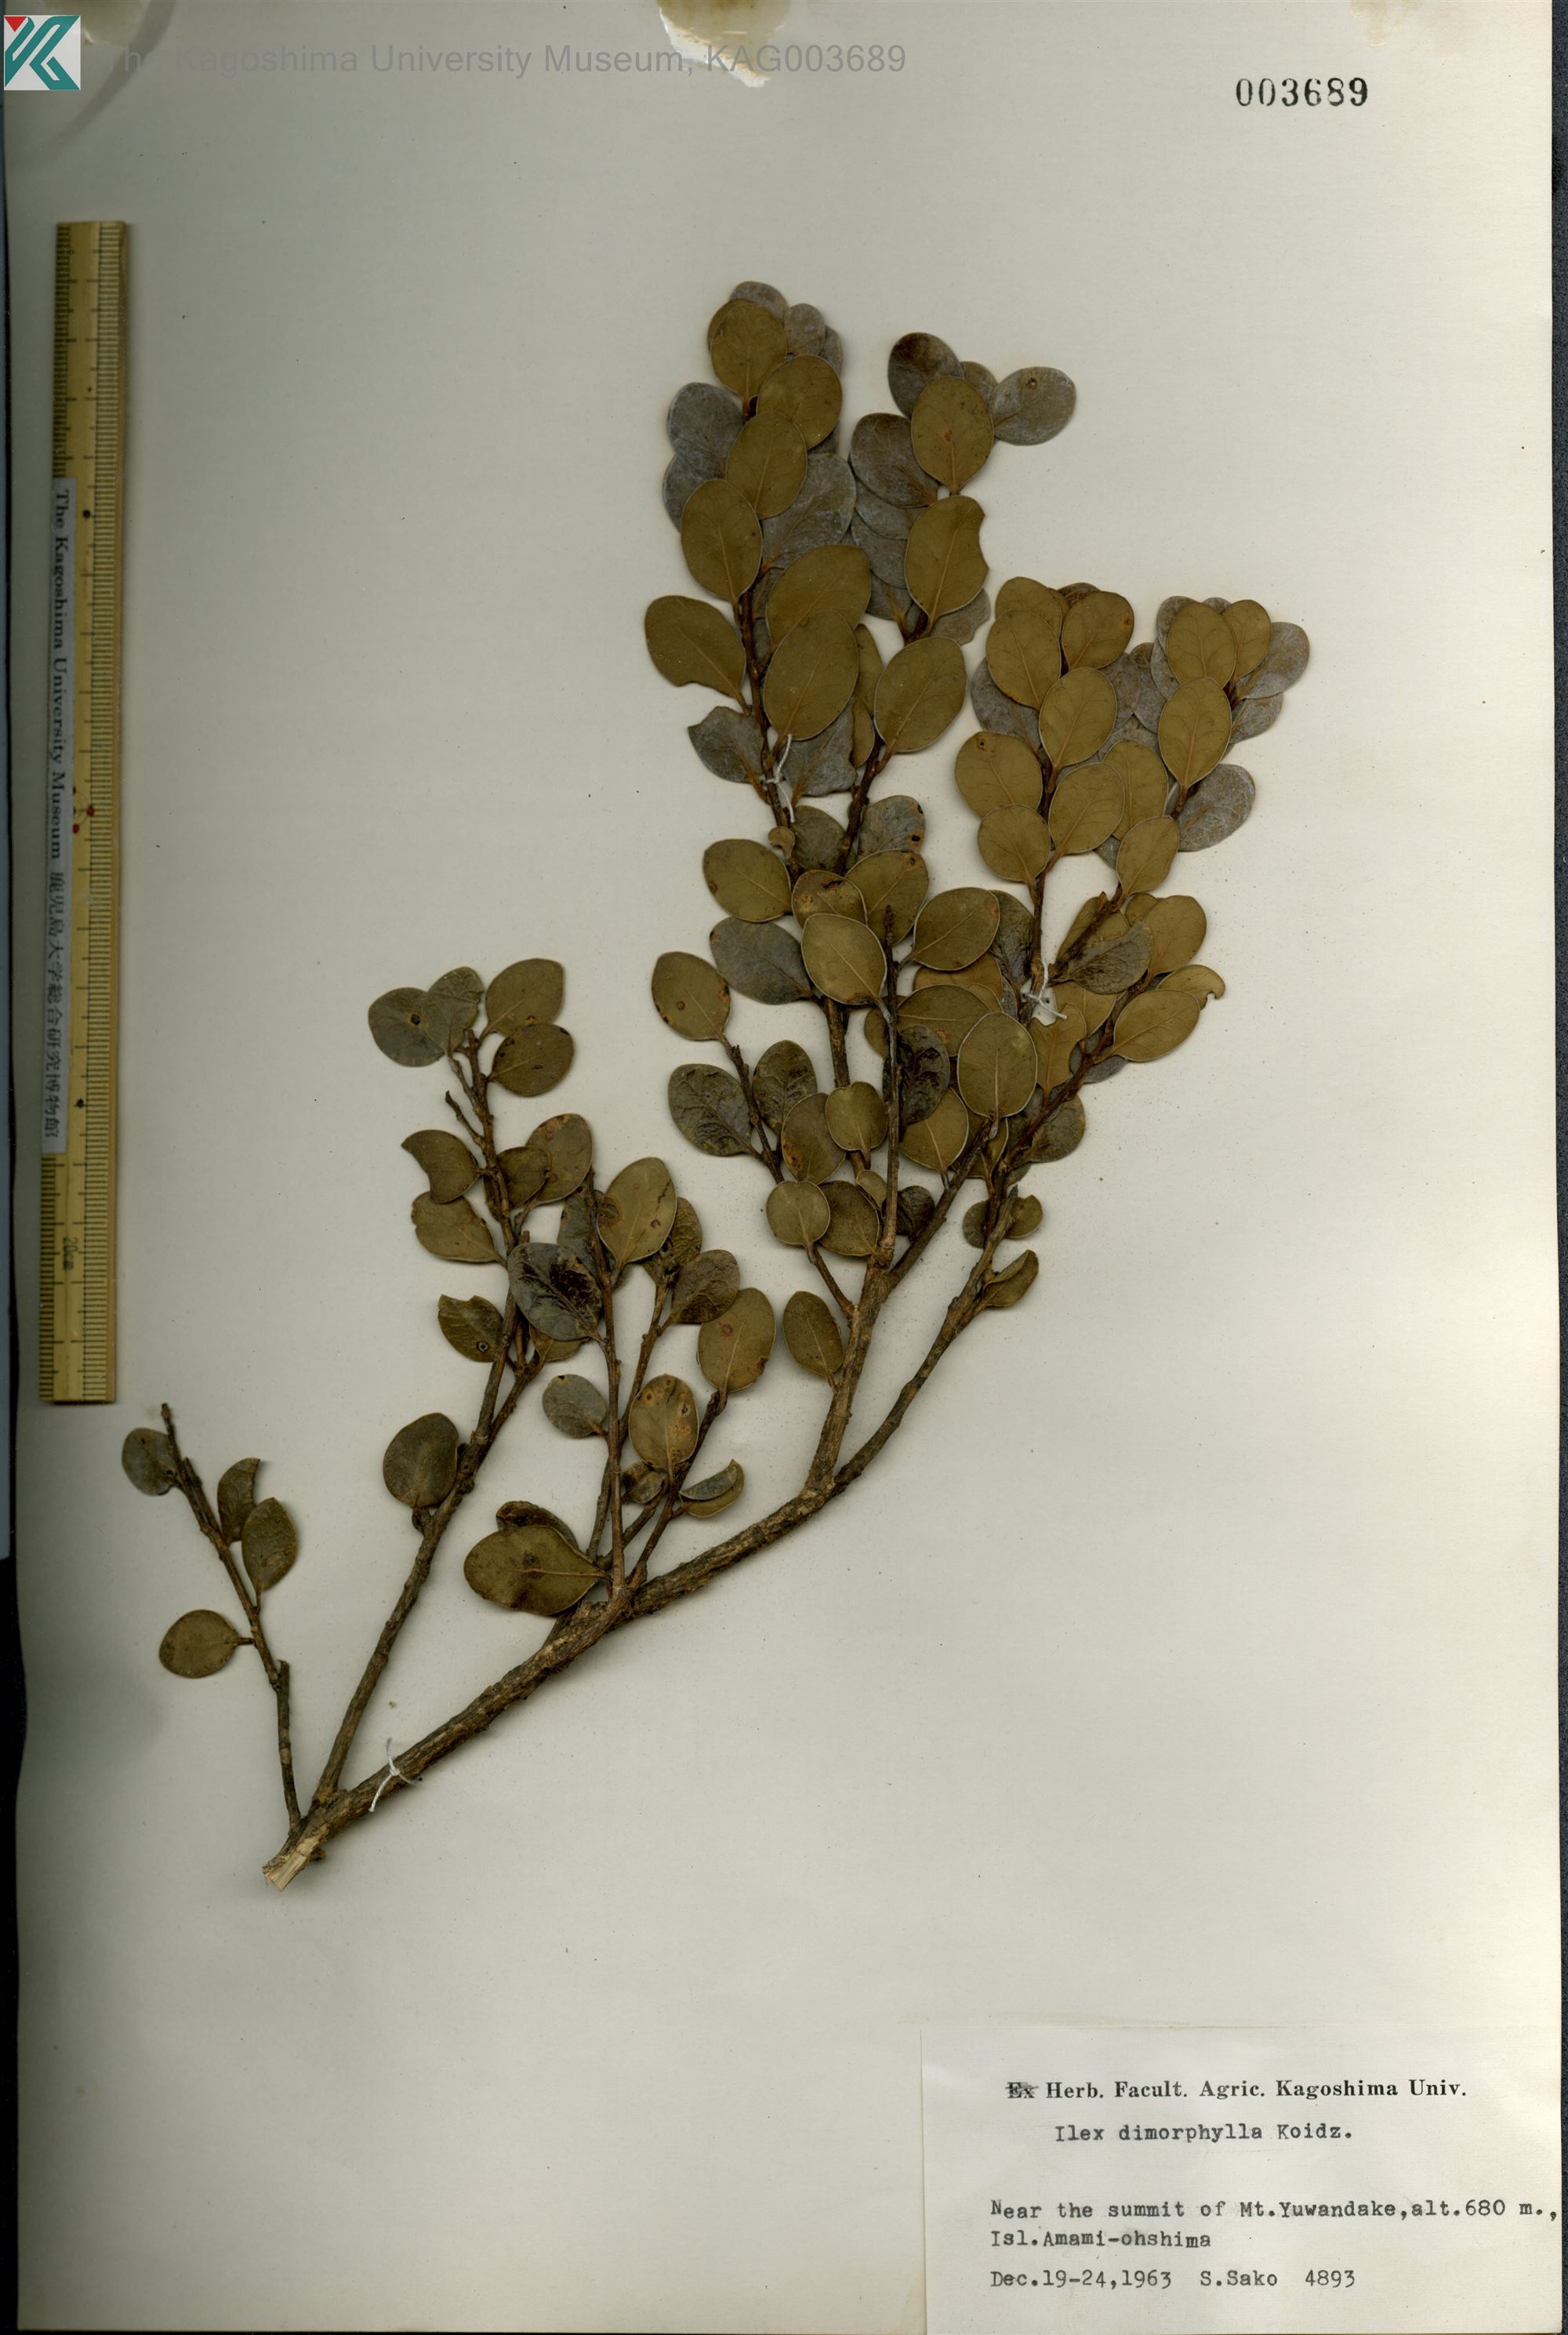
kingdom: Plantae
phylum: Tracheophyta
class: Magnoliopsida
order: Aquifoliales
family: Aquifoliaceae
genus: Ilex
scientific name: Ilex
